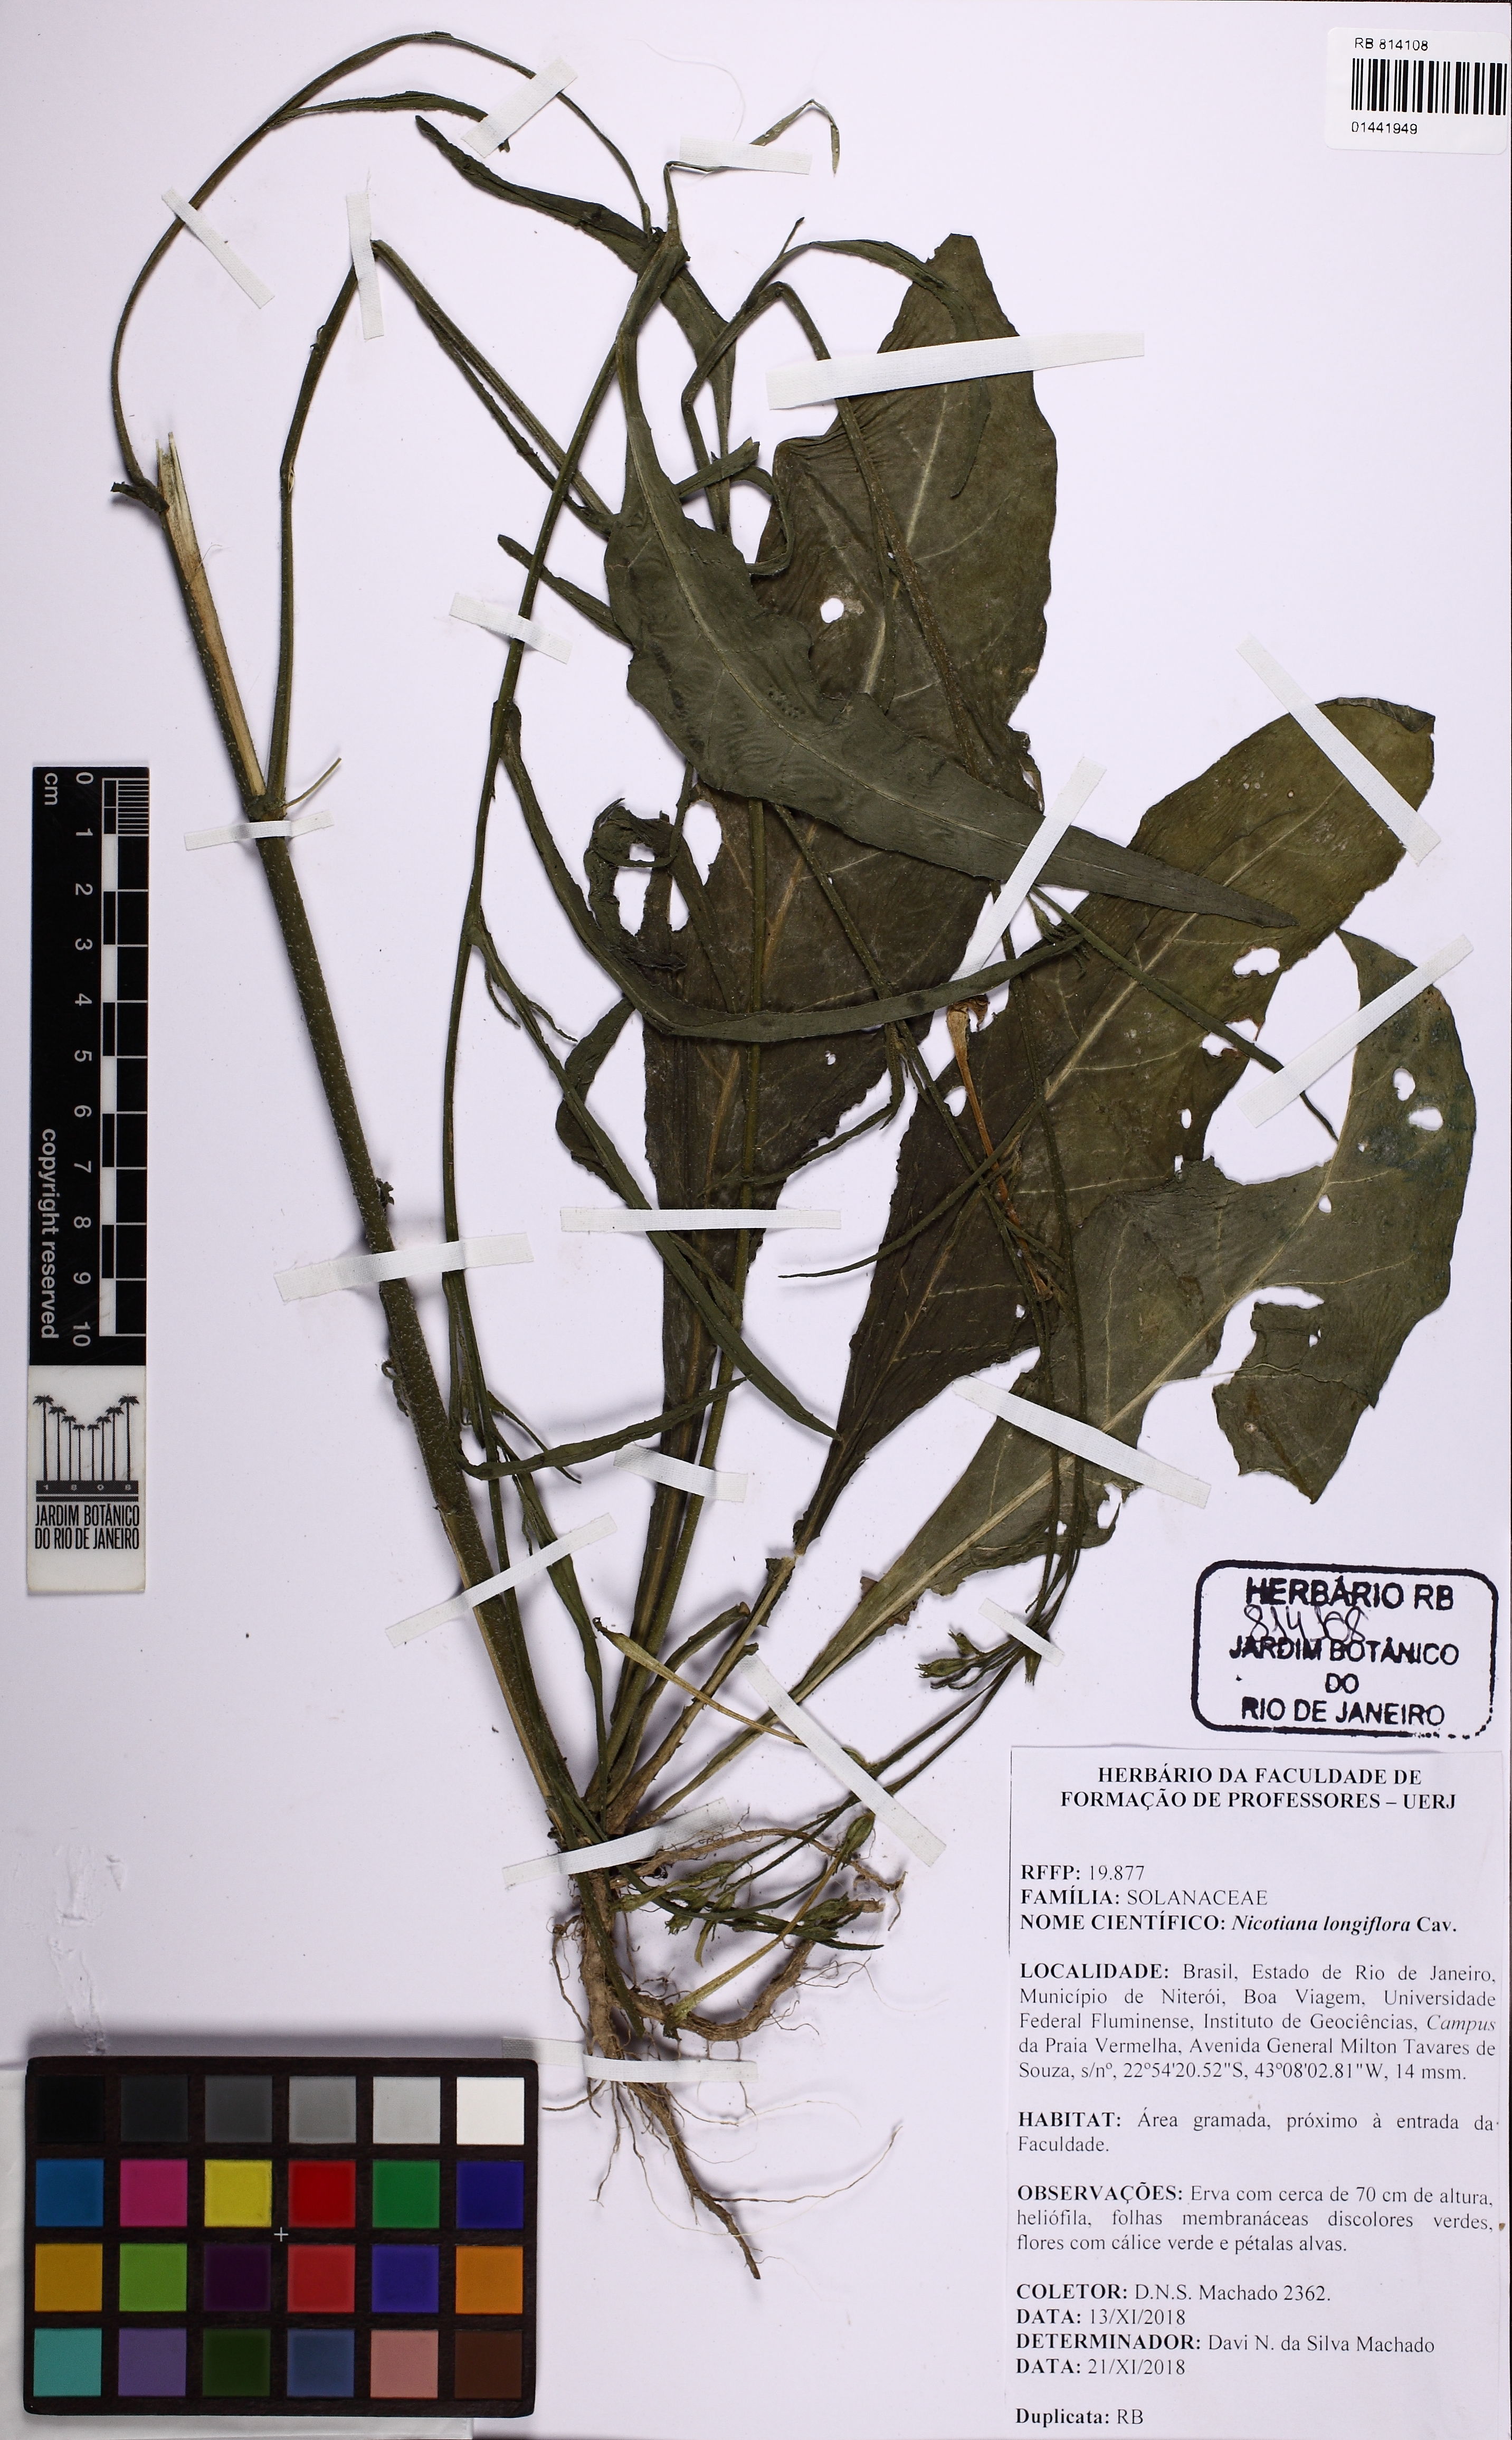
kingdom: Plantae
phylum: Tracheophyta
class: Magnoliopsida
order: Solanales
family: Solanaceae
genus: Nicotiana
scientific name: Nicotiana longiflora
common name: Long-flowered tobacco
